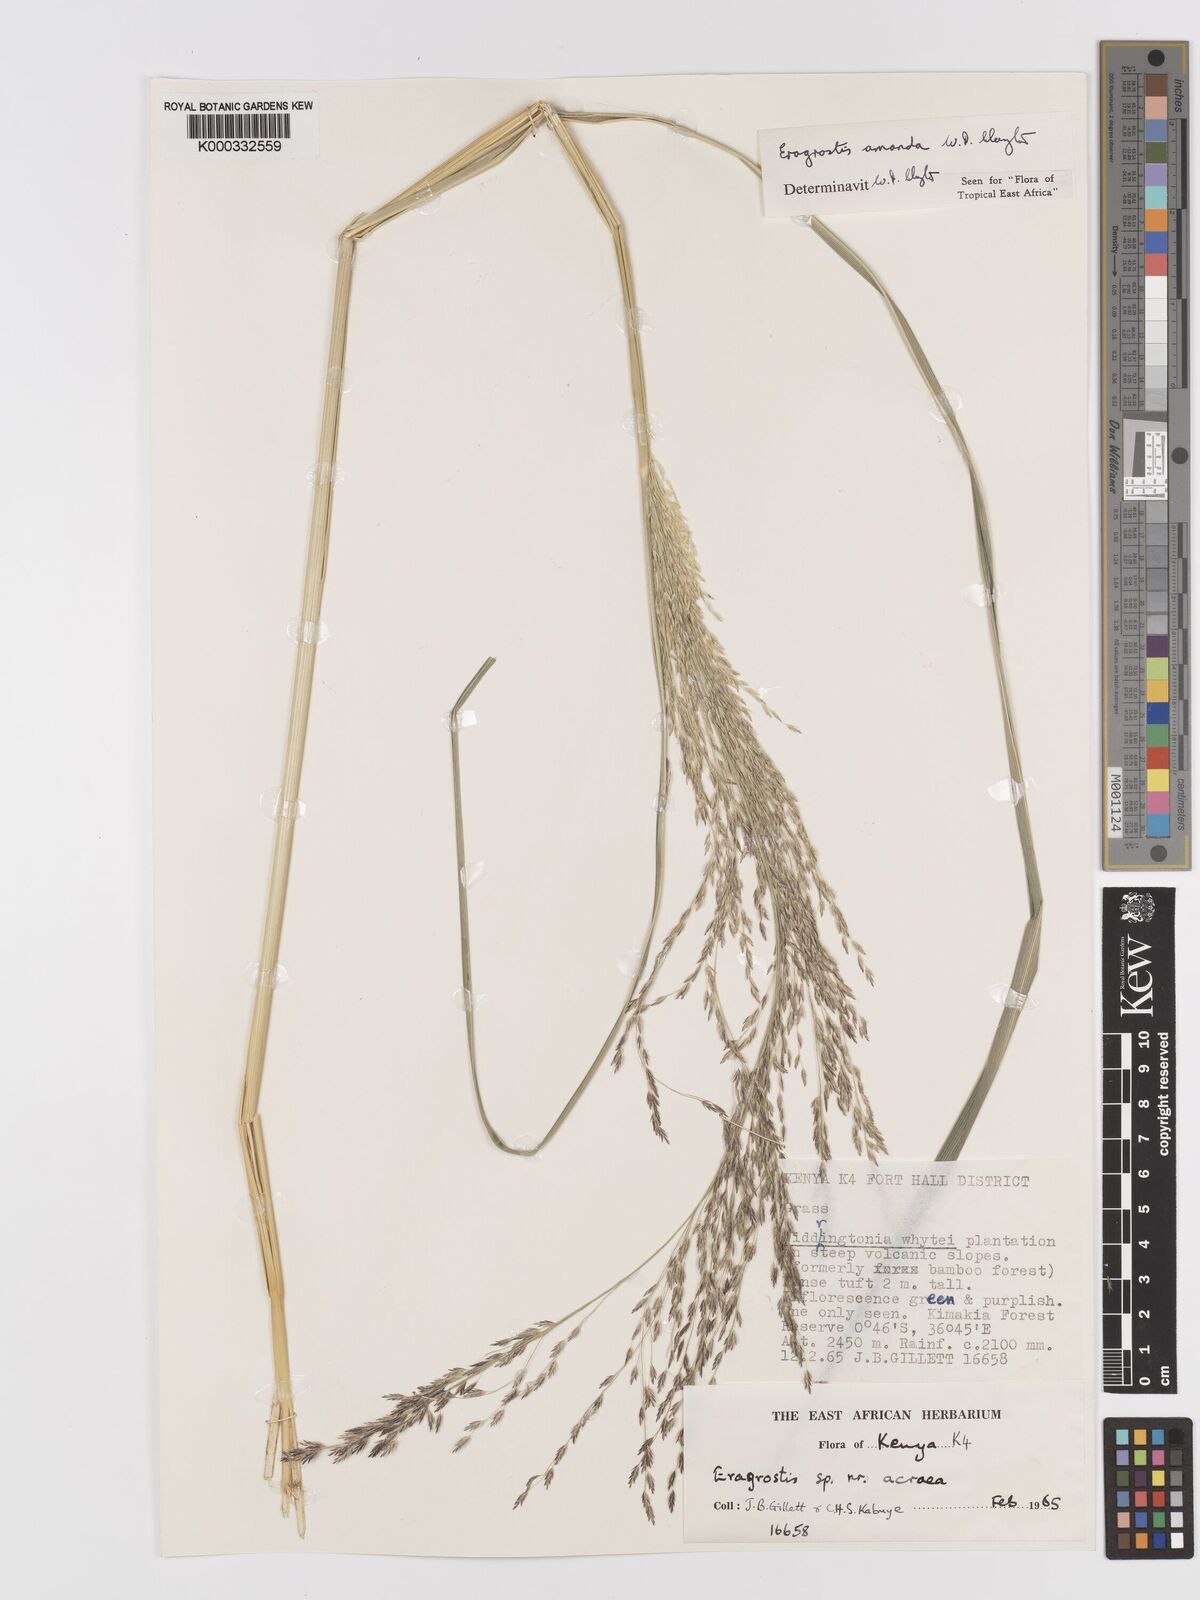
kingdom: Plantae
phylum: Tracheophyta
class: Liliopsida
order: Poales
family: Poaceae
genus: Eragrostis
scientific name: Eragrostis amanda
